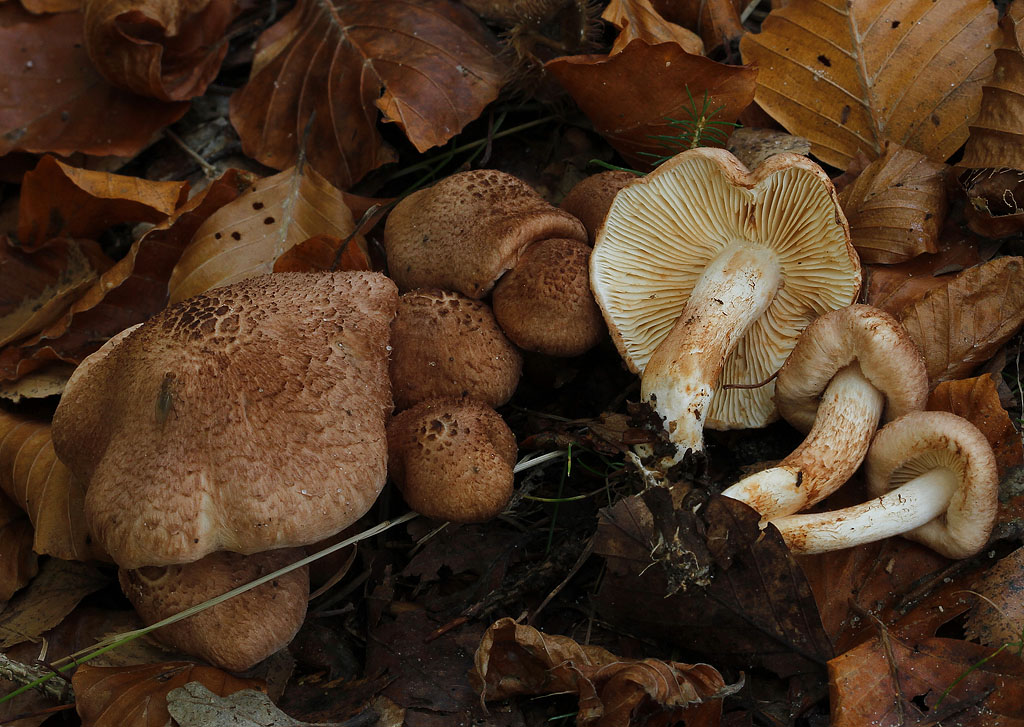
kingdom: Fungi
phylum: Basidiomycota
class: Agaricomycetes
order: Agaricales
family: Tricholomataceae
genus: Tricholoma
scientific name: Tricholoma vaccinum
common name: ko-ridderhat
